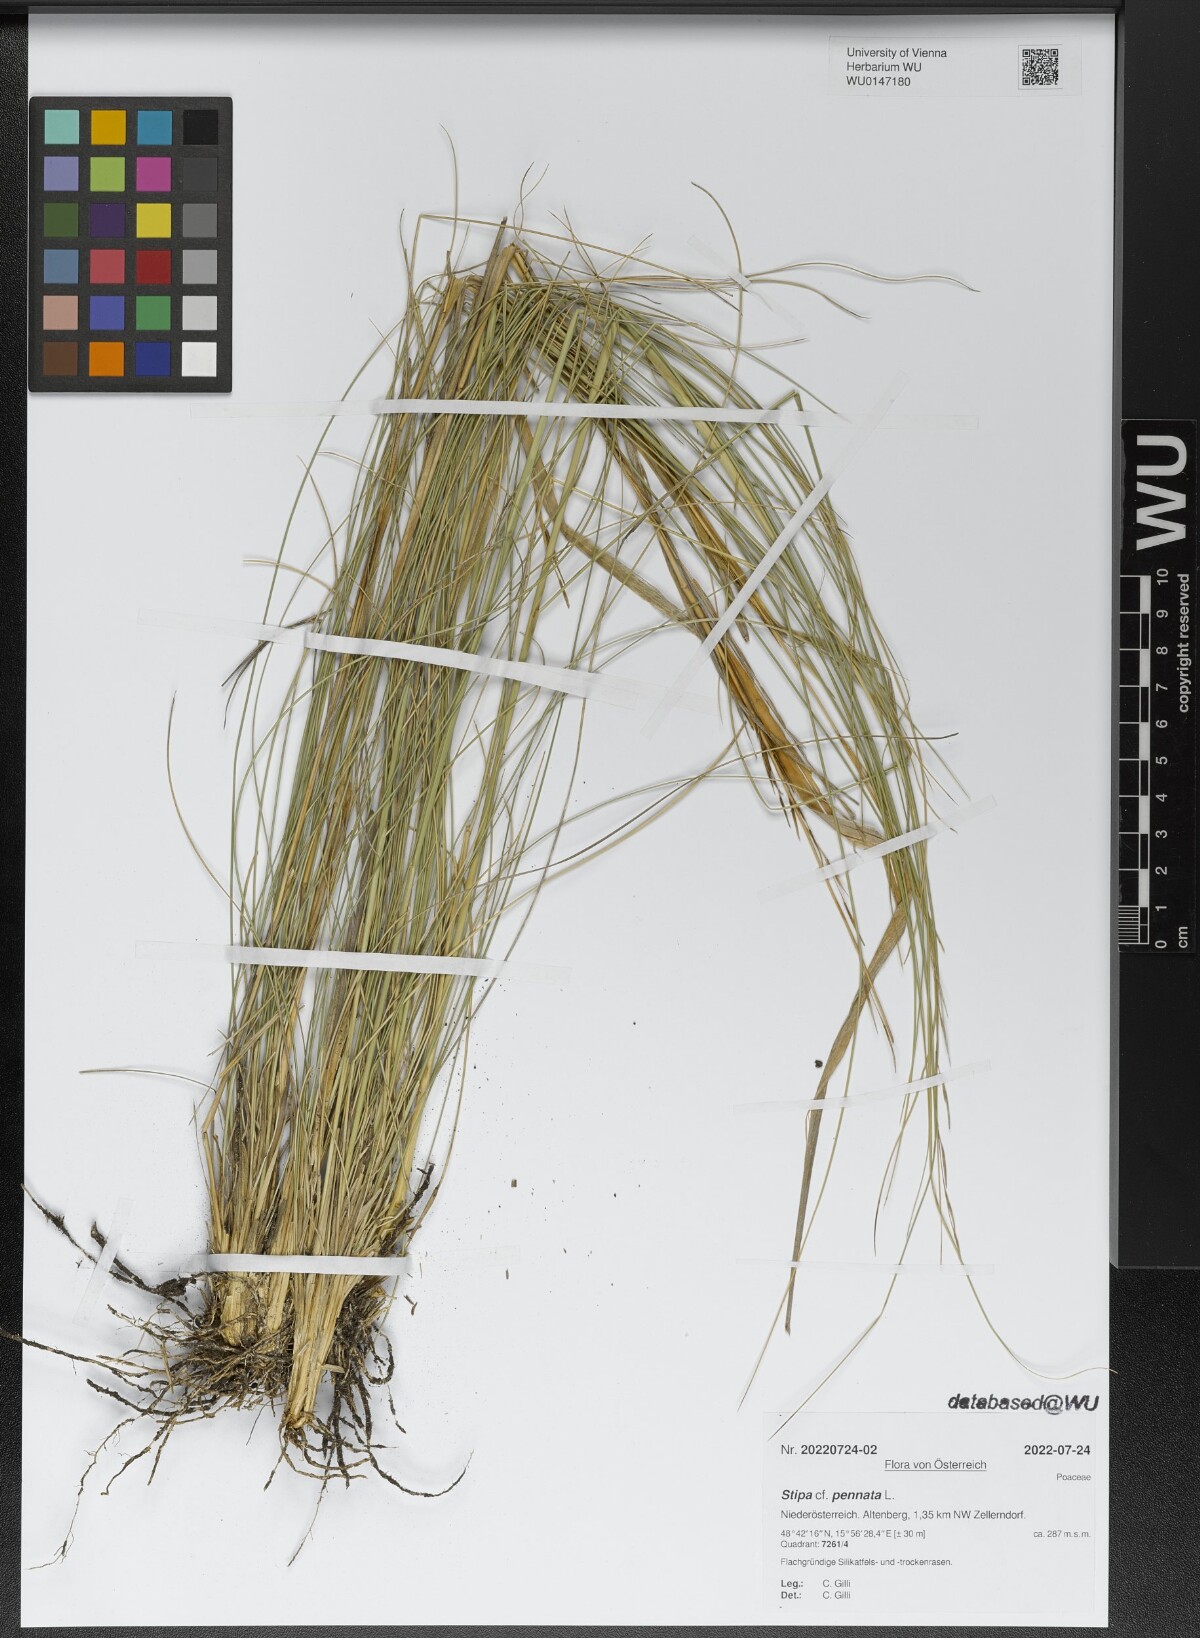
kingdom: Plantae
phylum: Tracheophyta
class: Liliopsida
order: Poales
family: Poaceae
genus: Stipa
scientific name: Stipa pennata
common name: European feather grass
